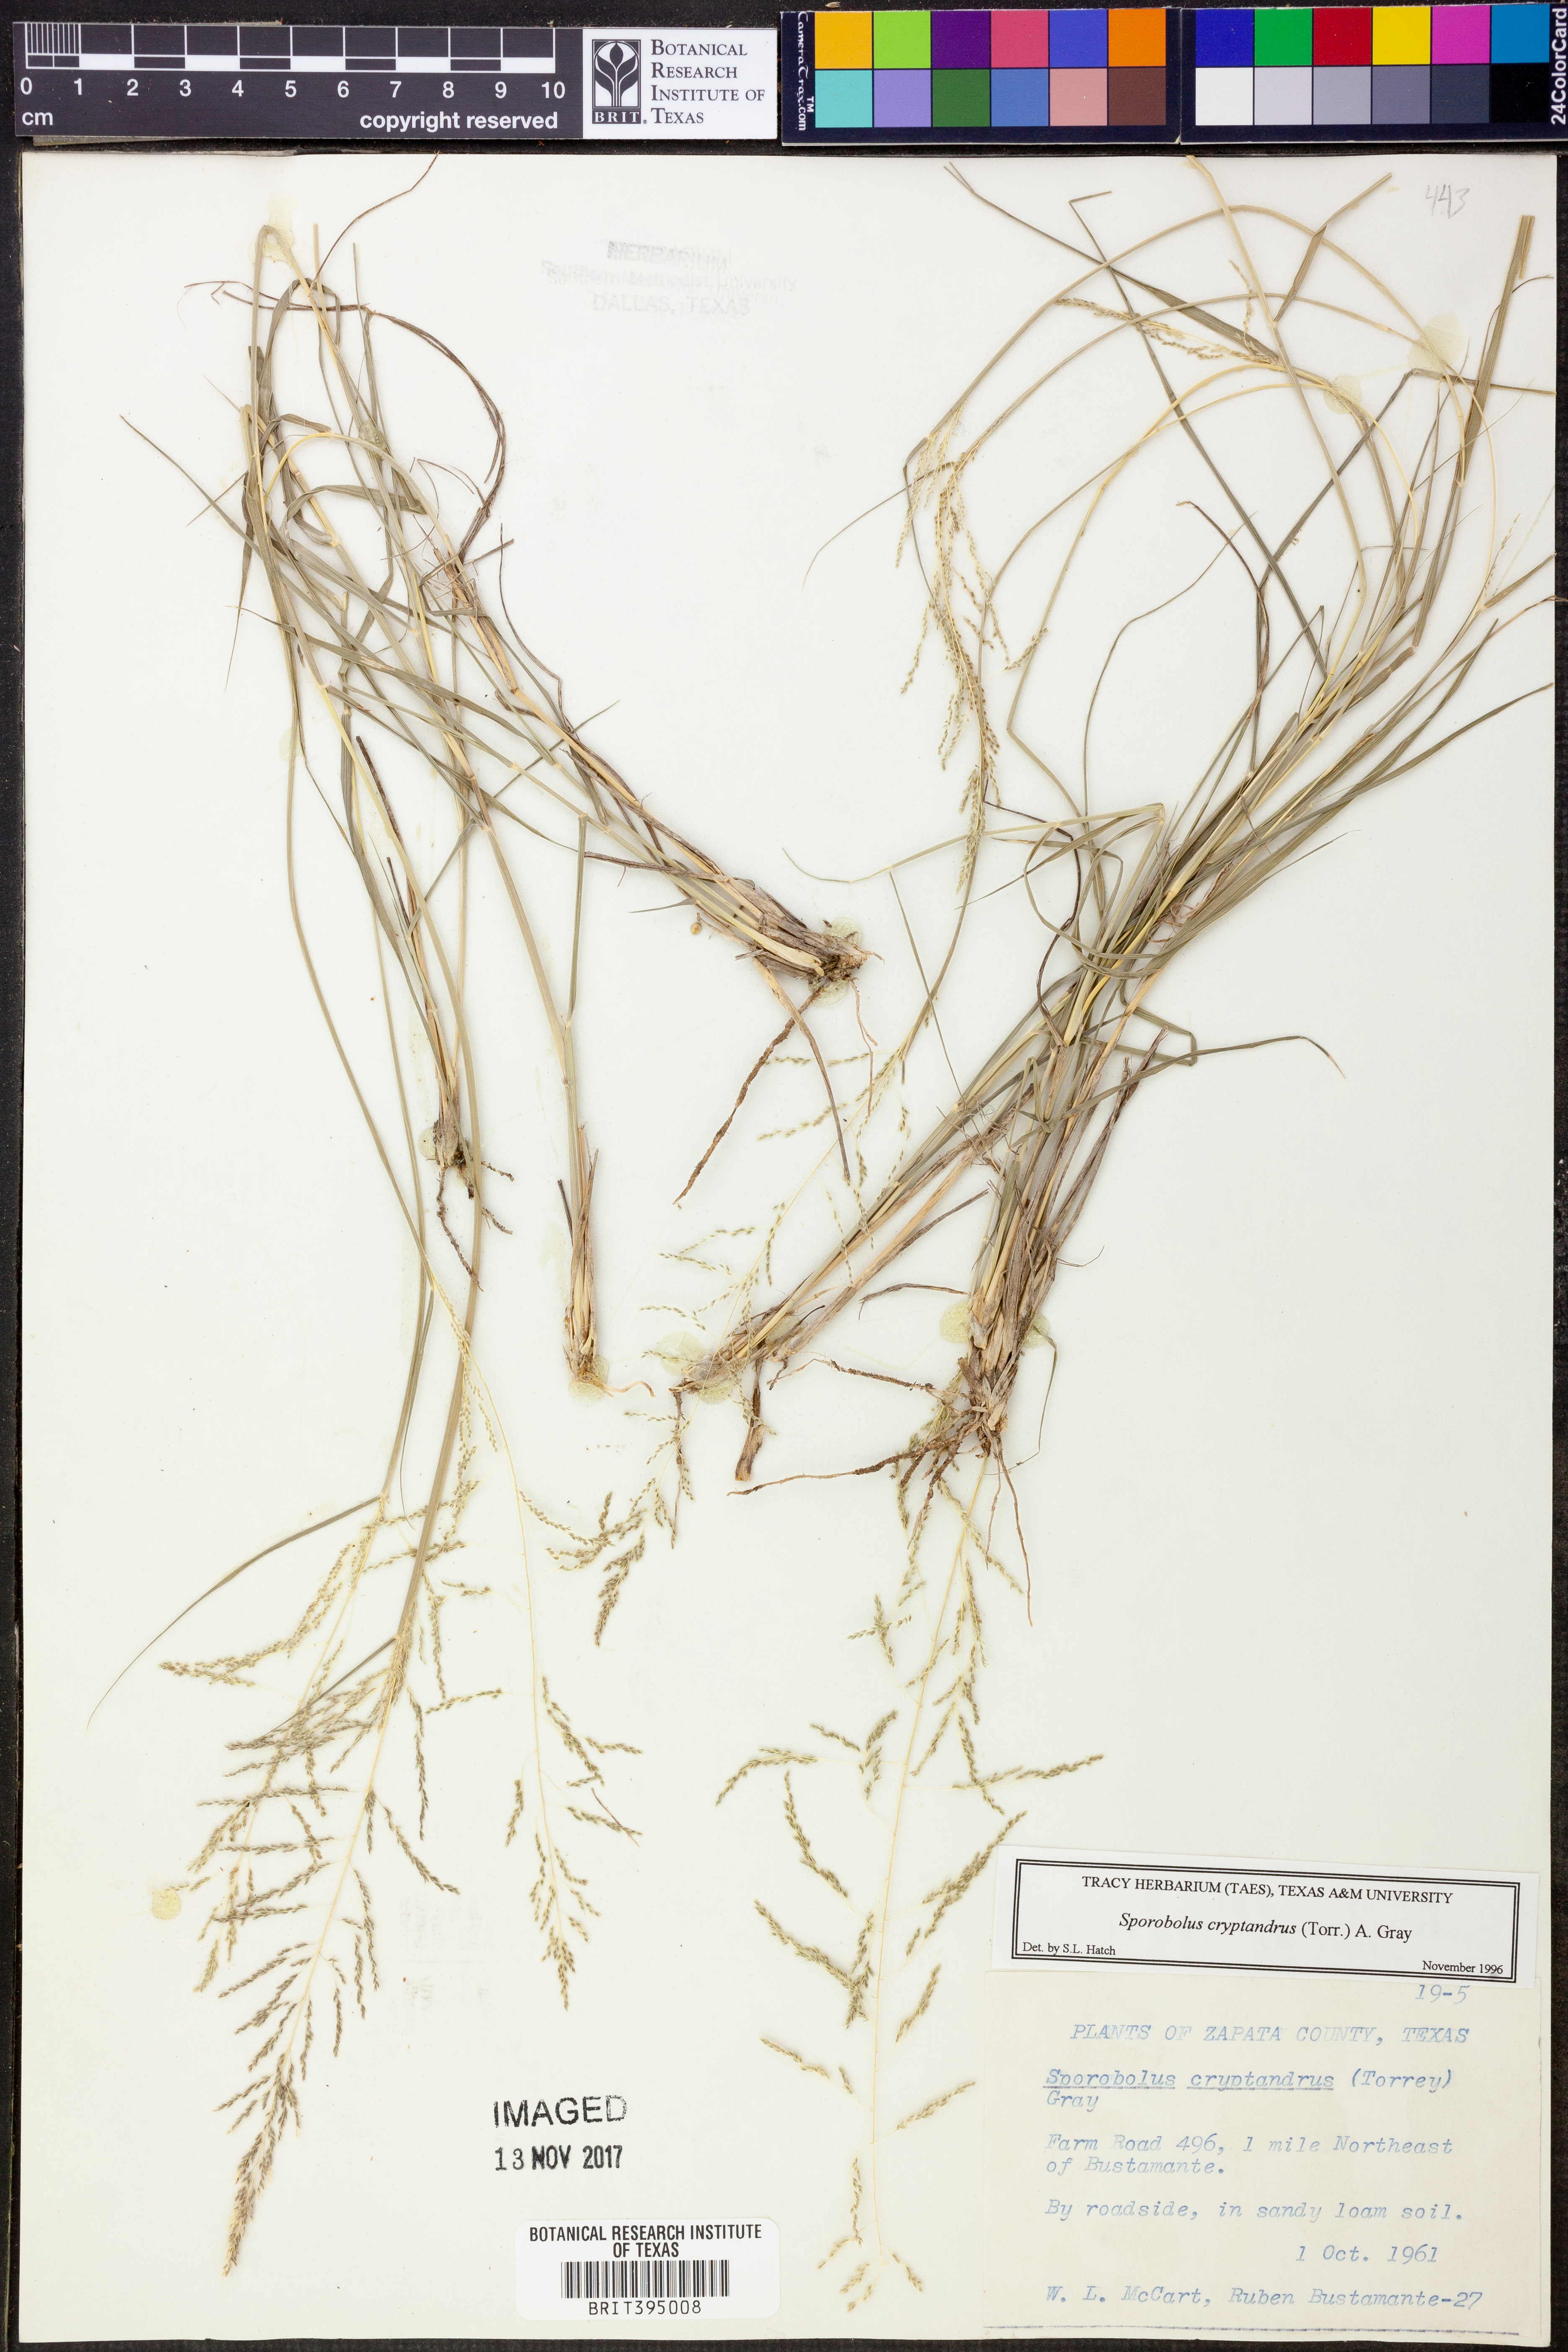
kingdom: Plantae
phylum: Tracheophyta
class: Liliopsida
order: Poales
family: Poaceae
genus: Sporobolus
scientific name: Sporobolus cryptandrus
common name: Sand dropseed
